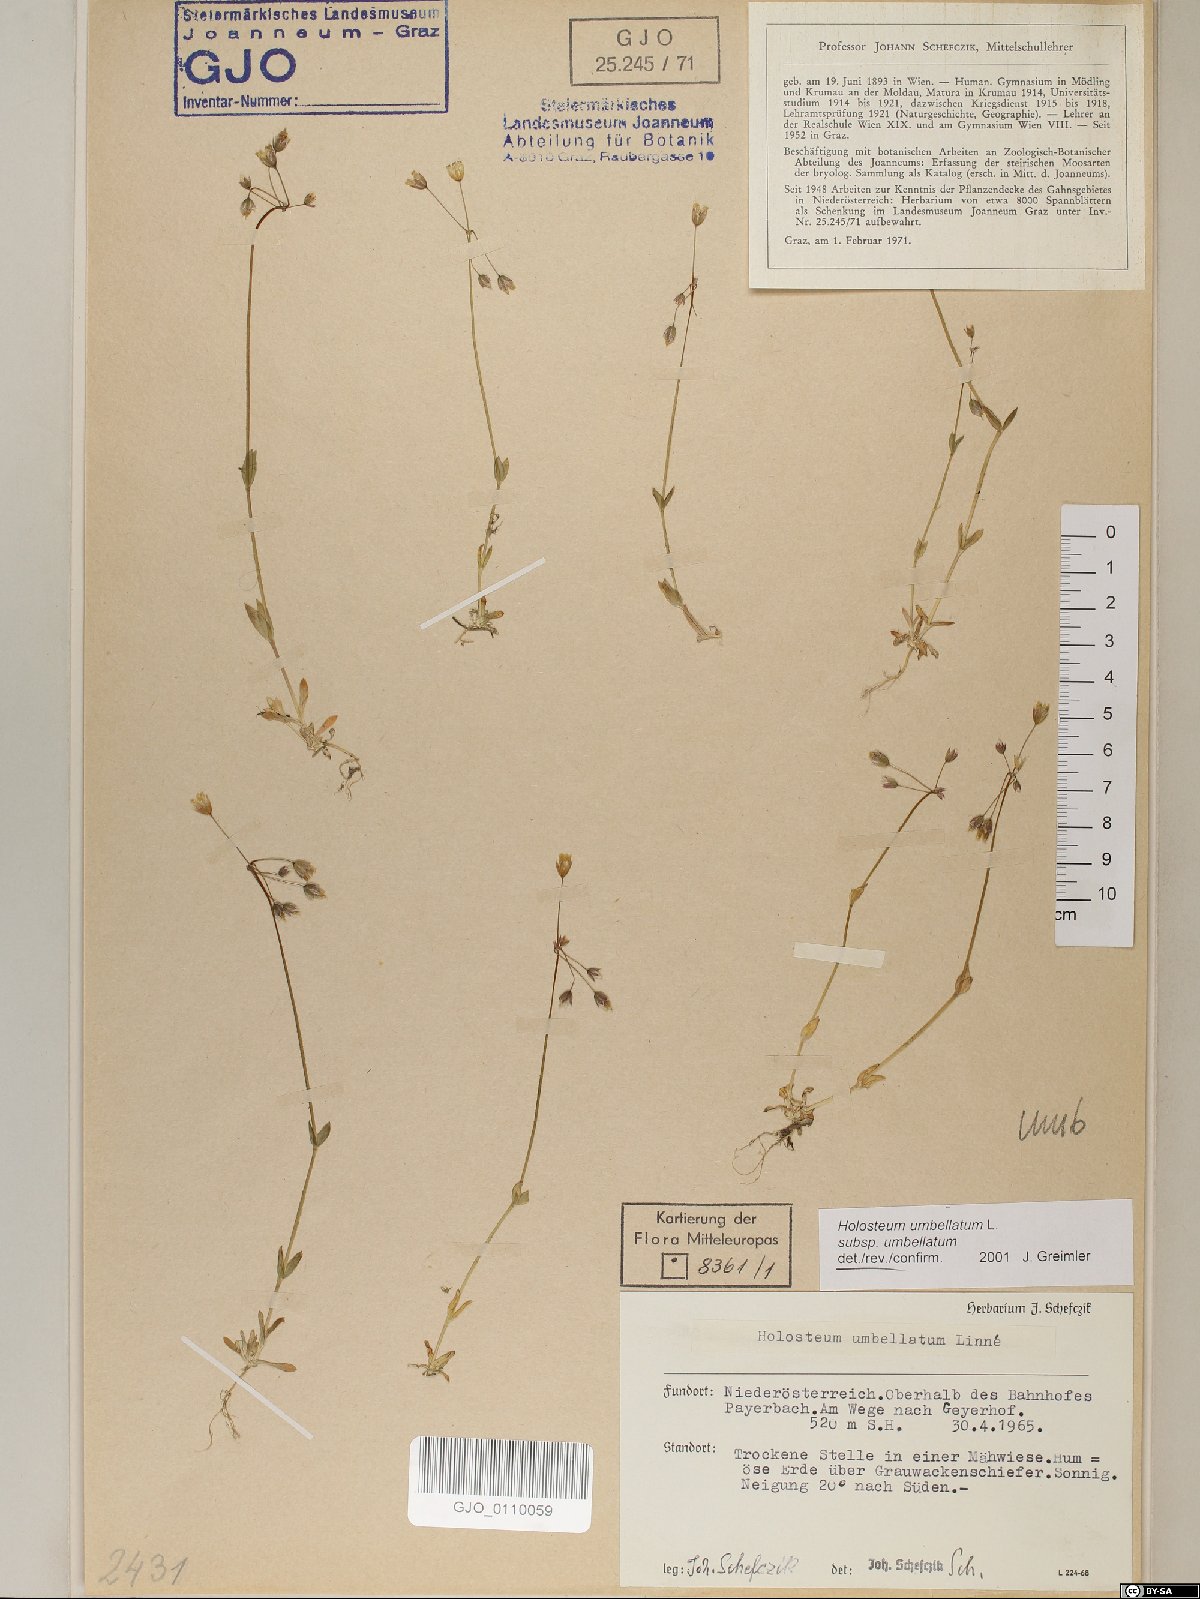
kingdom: Plantae
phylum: Tracheophyta
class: Magnoliopsida
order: Caryophyllales
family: Caryophyllaceae
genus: Holosteum
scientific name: Holosteum umbellatum
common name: Jagged chickweed
